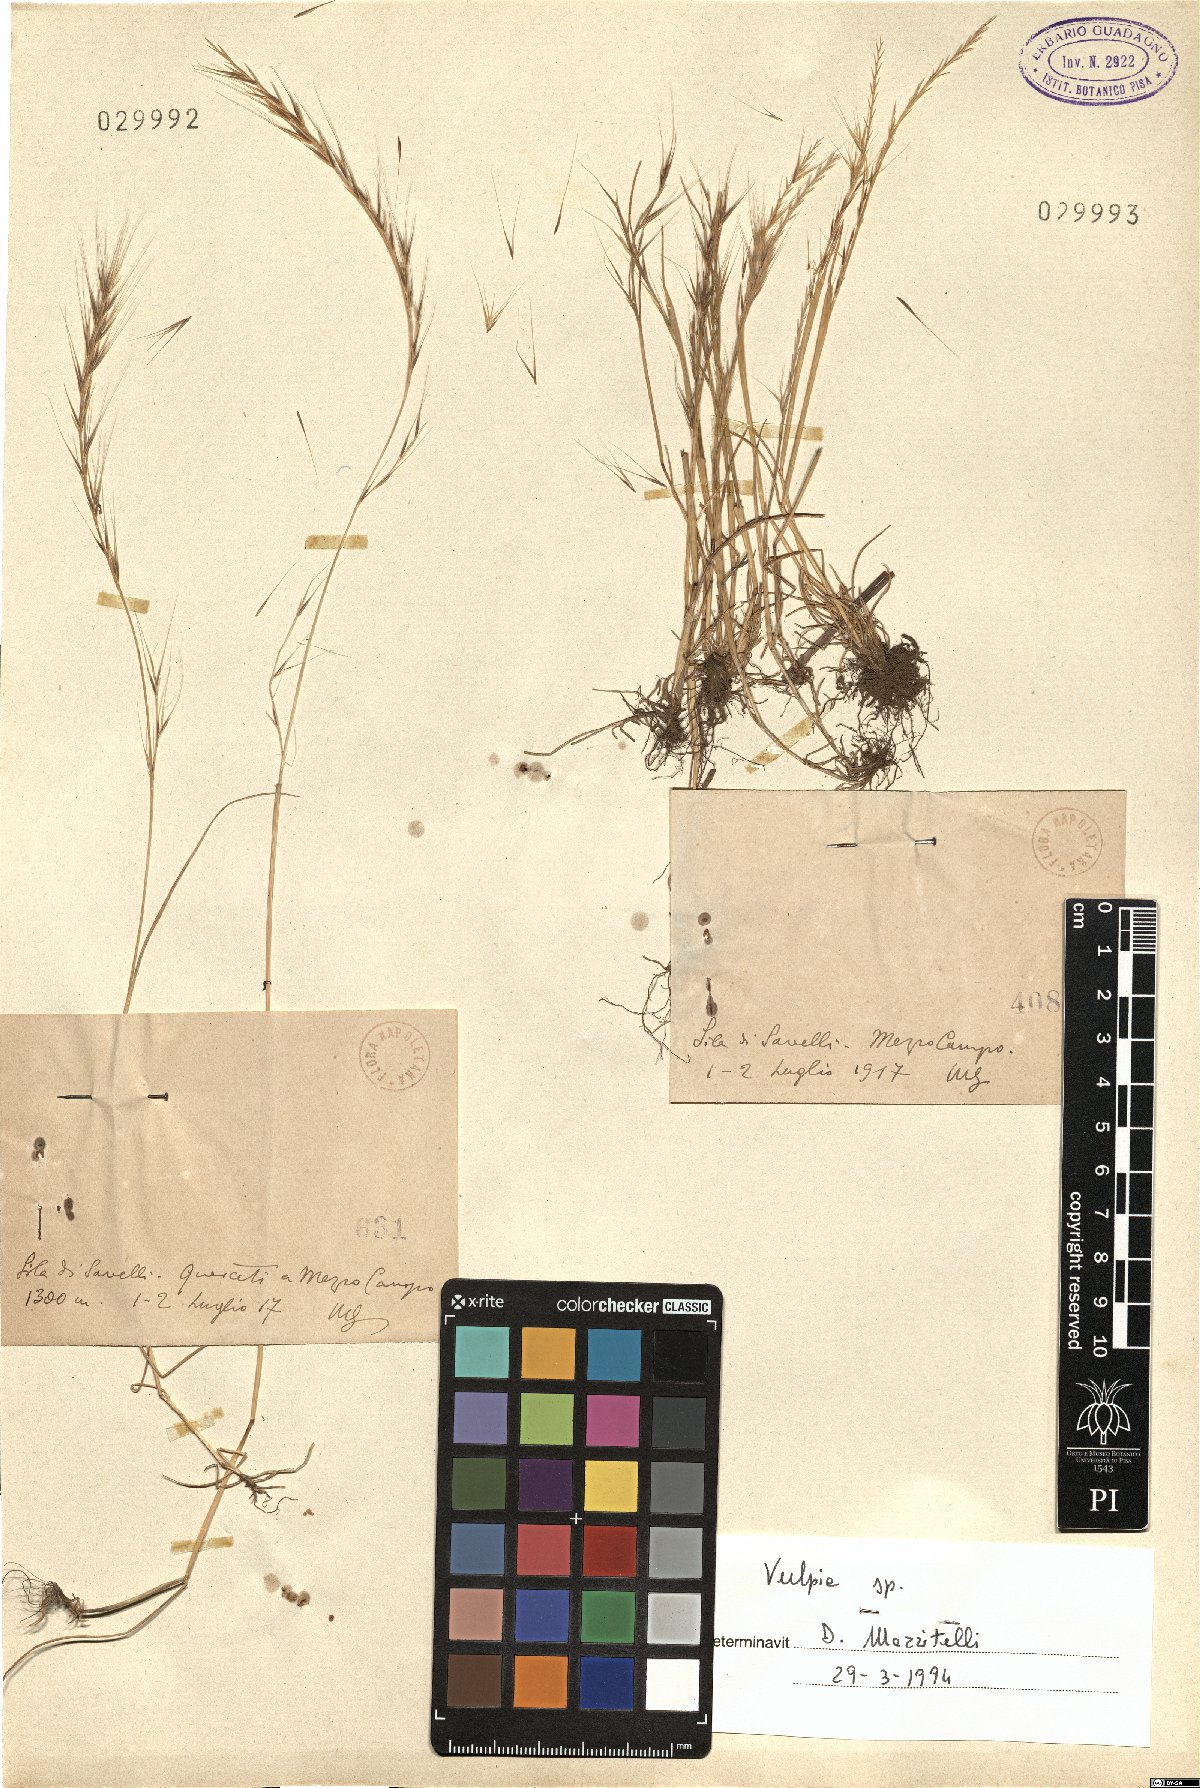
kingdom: Plantae
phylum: Tracheophyta
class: Liliopsida
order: Poales
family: Poaceae
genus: Festuca
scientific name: Festuca
